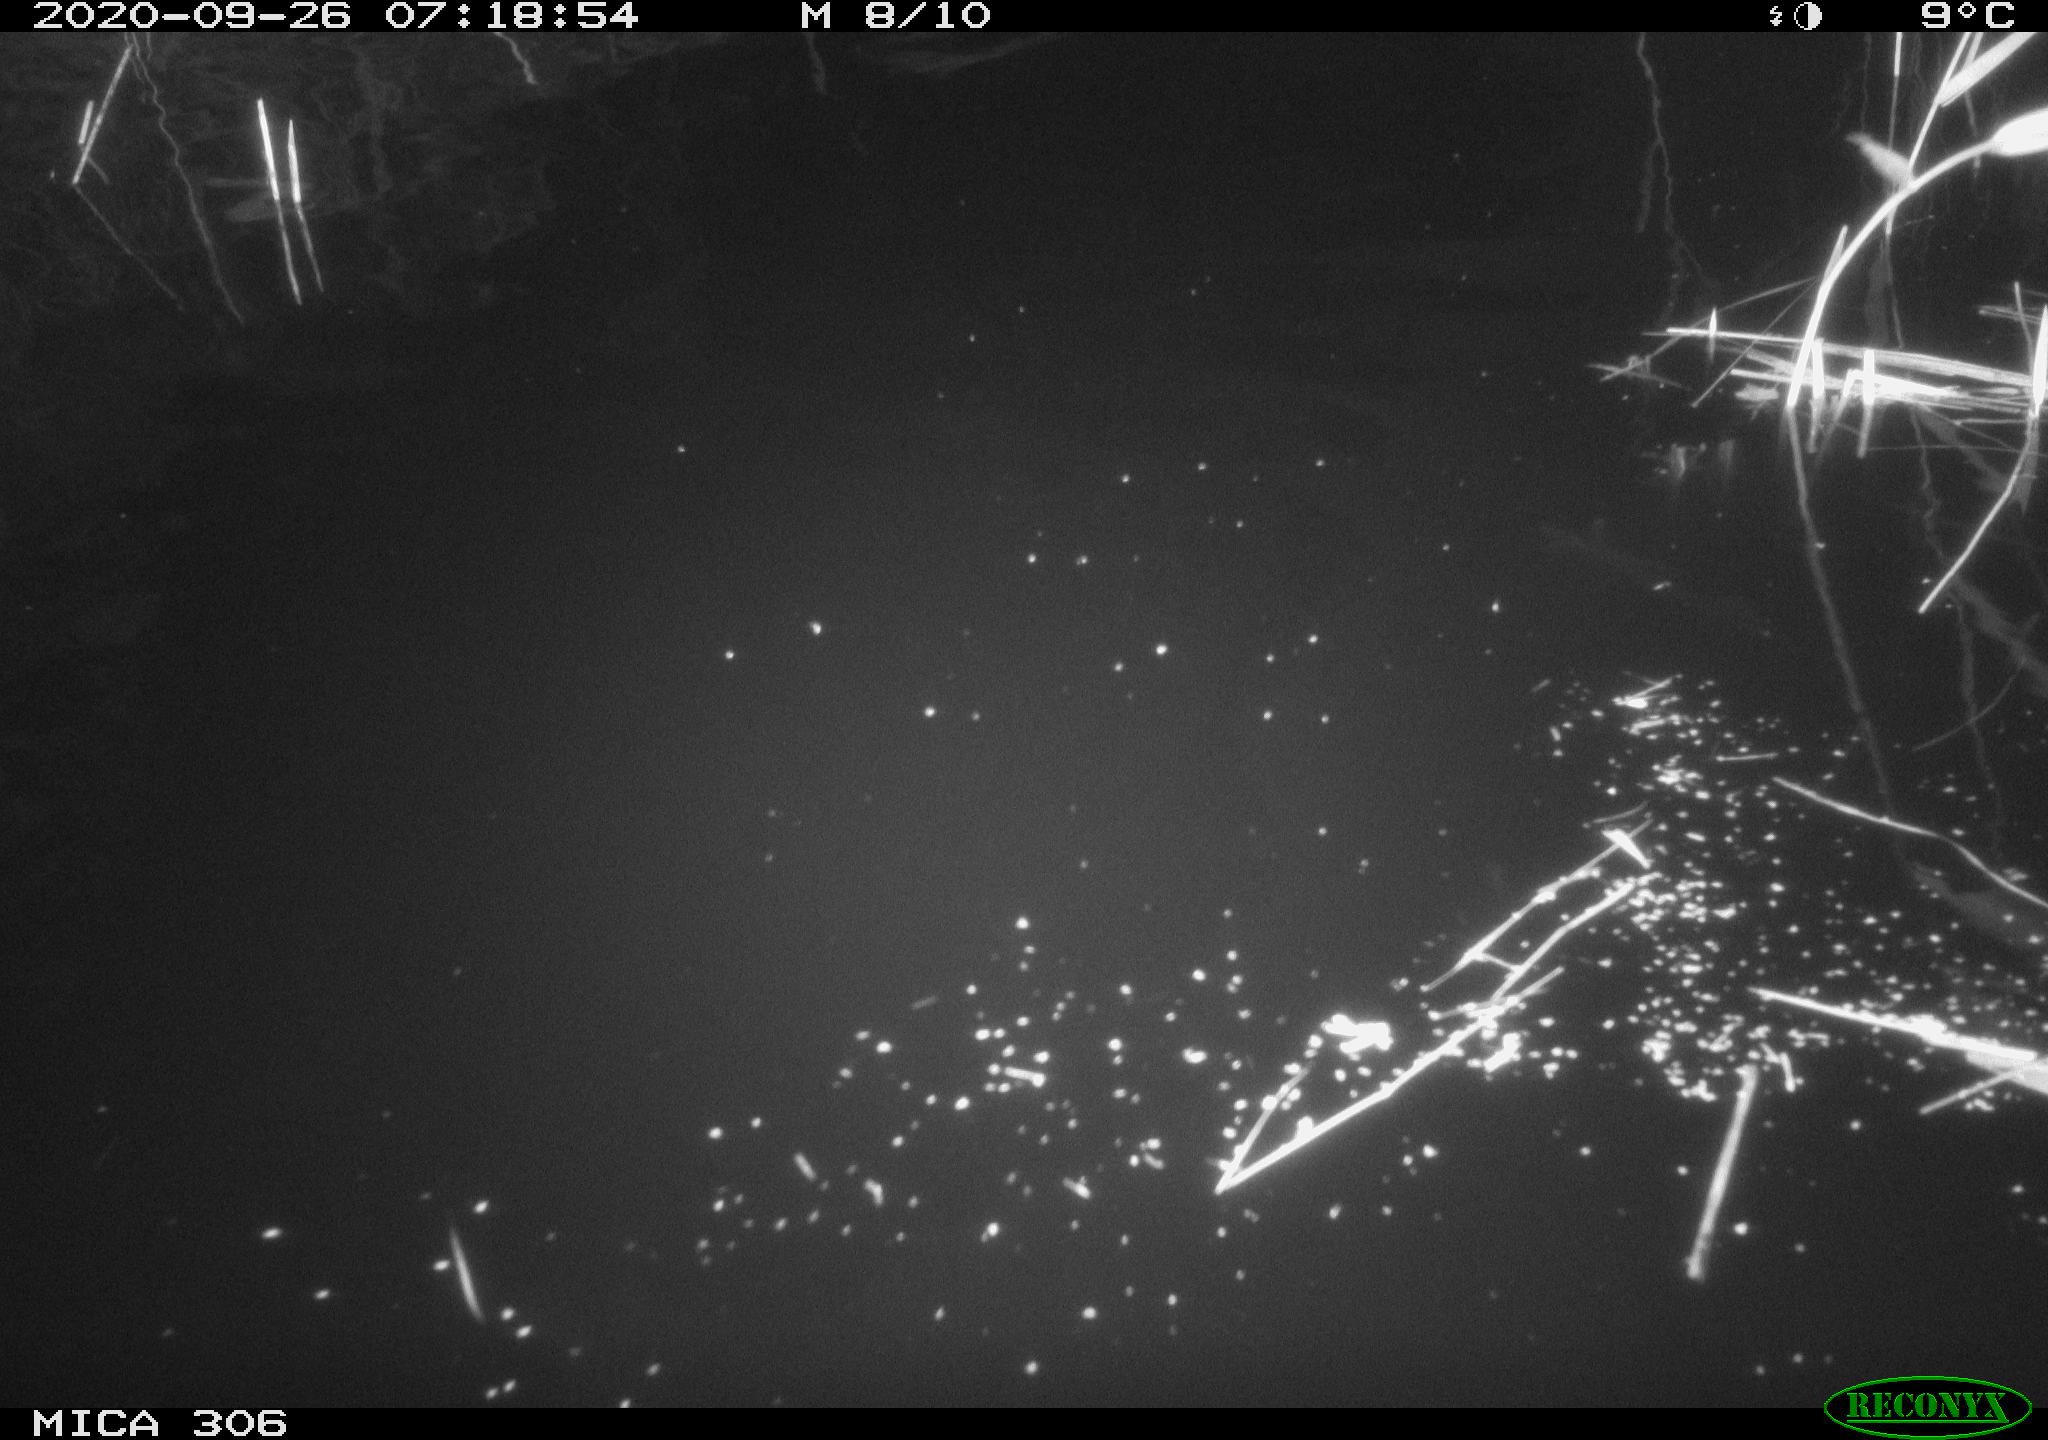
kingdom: Animalia
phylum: Chordata
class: Mammalia
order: Rodentia
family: Muridae
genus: Rattus
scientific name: Rattus norvegicus
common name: Brown rat
